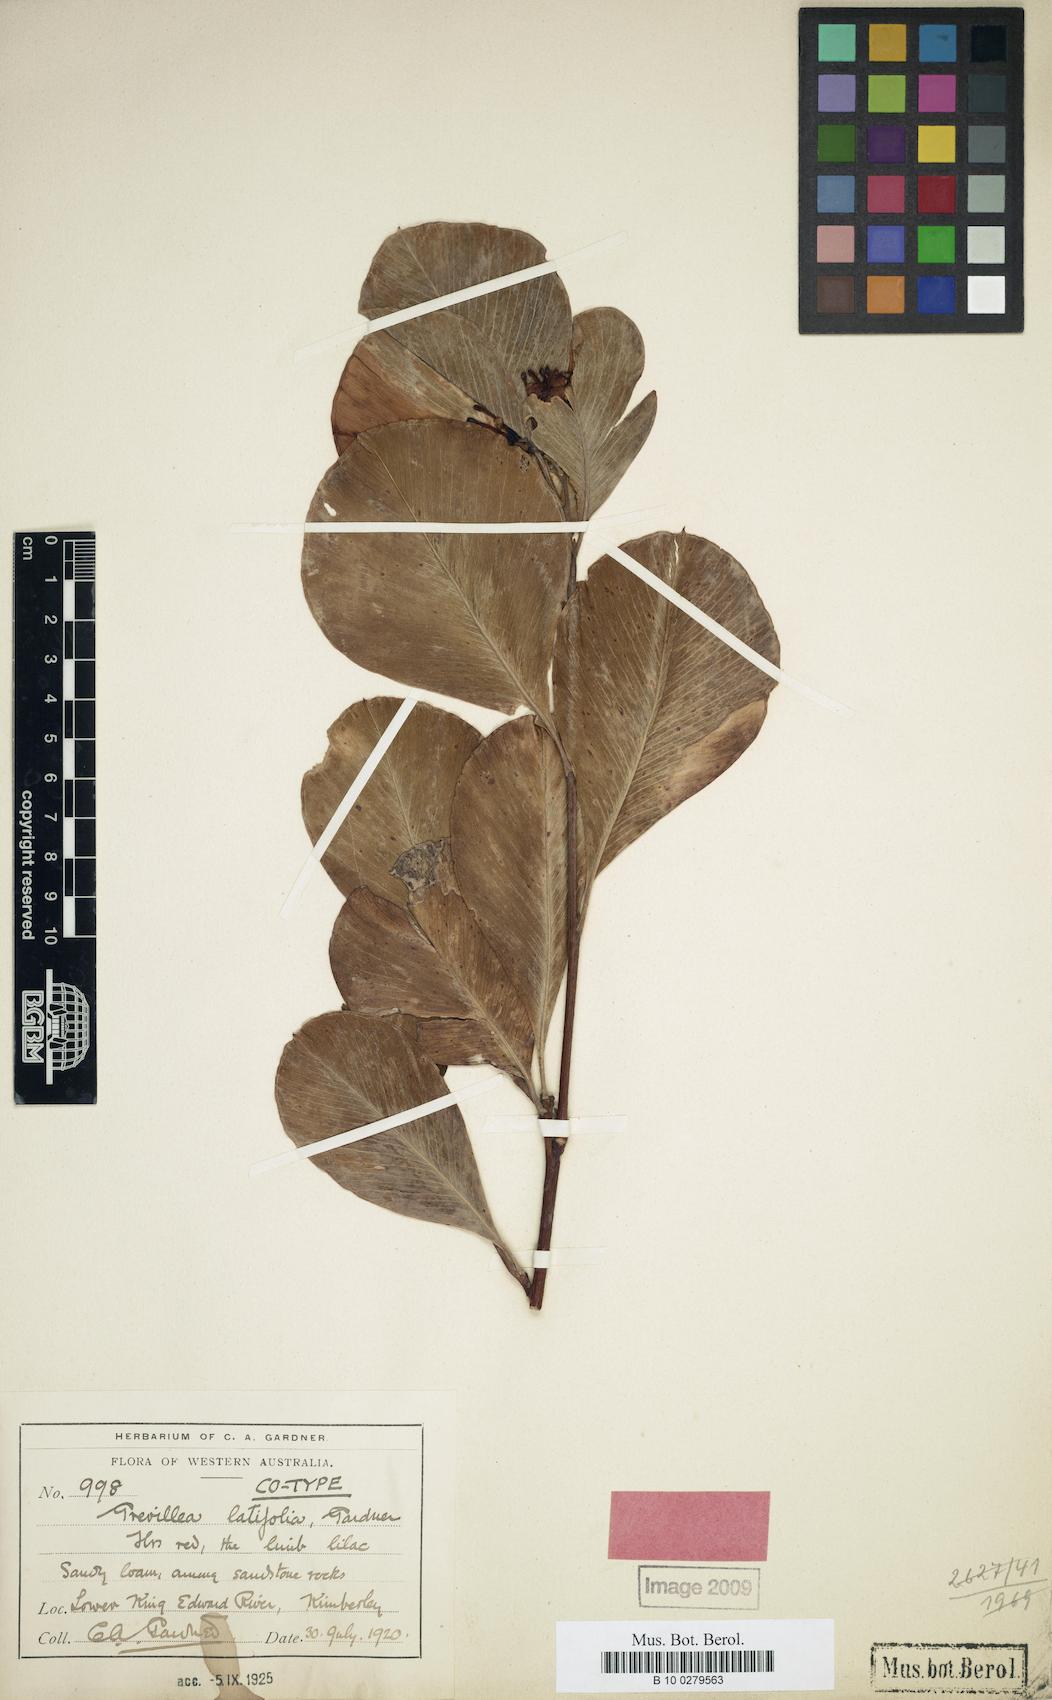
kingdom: Plantae
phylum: Tracheophyta
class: Magnoliopsida
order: Proteales
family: Proteaceae
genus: Grevillea
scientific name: Grevillea latifolia
